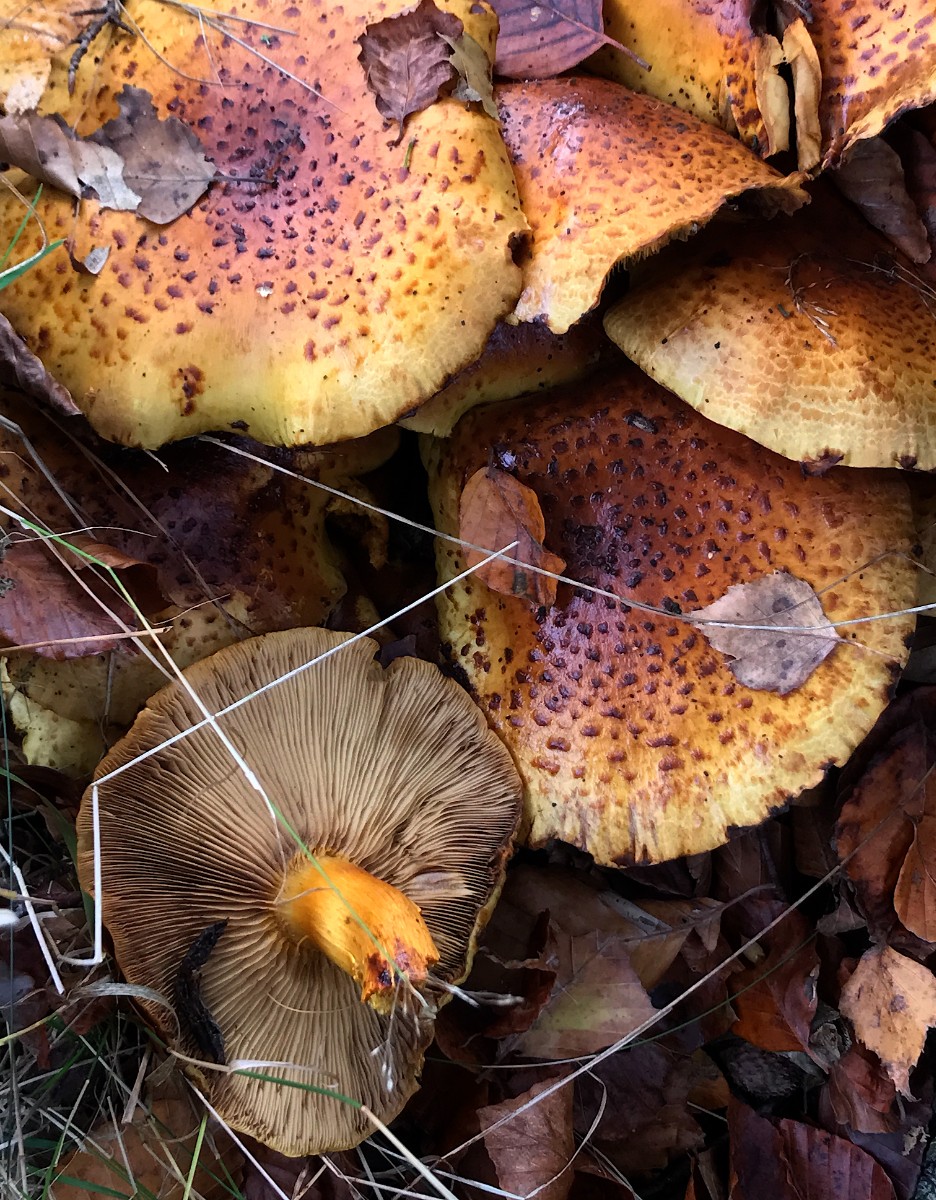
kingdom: Fungi
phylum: Basidiomycota
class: Agaricomycetes
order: Agaricales
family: Strophariaceae
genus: Pholiota
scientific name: Pholiota jahnii
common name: slimet skælhat
